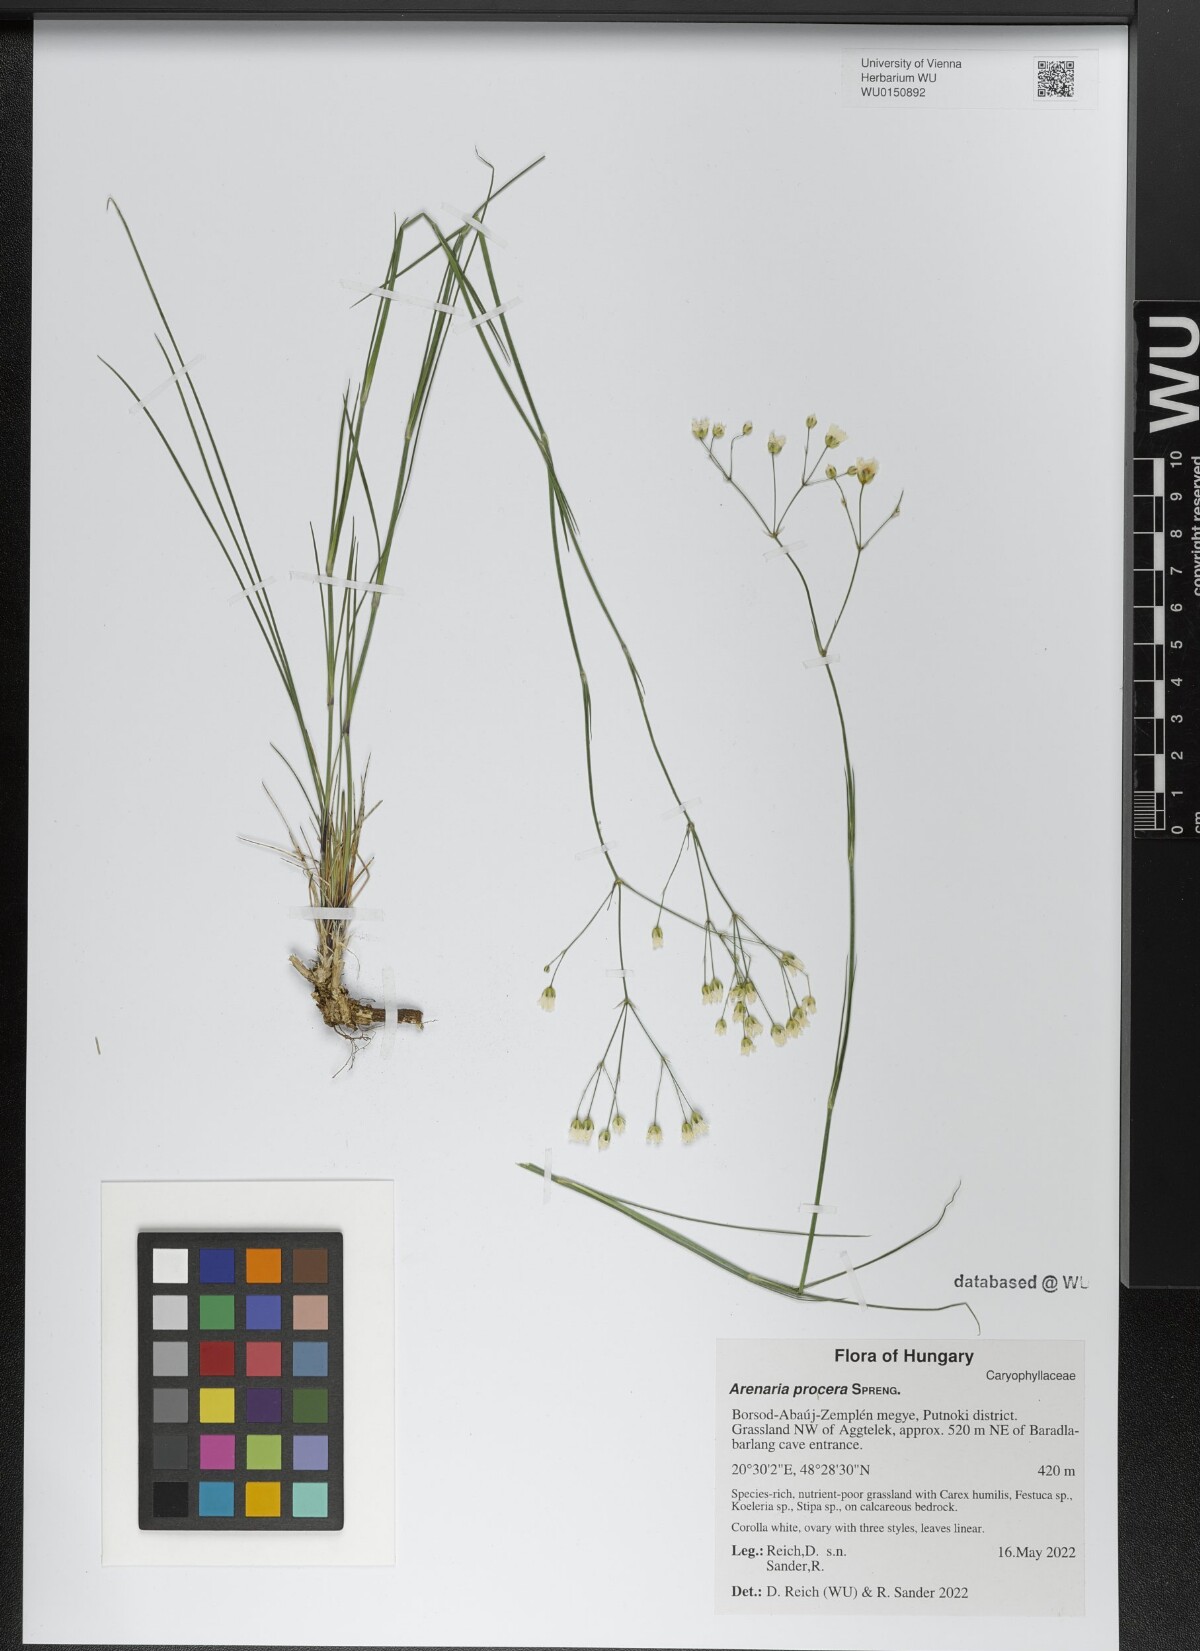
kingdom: Plantae
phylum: Tracheophyta
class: Magnoliopsida
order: Caryophyllales
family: Caryophyllaceae
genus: Eremogone
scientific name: Eremogone saxatilis
